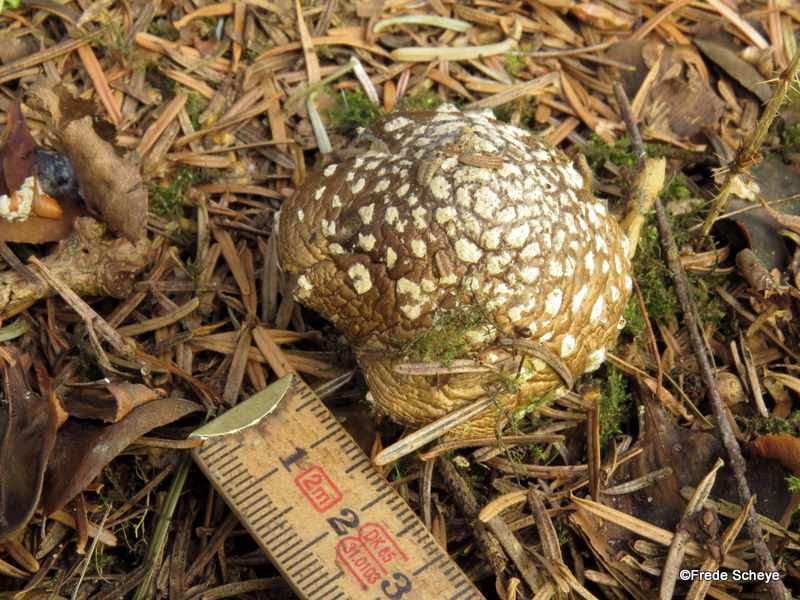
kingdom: Fungi
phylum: Basidiomycota
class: Agaricomycetes
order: Agaricales
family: Amanitaceae
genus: Amanita
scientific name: Amanita
